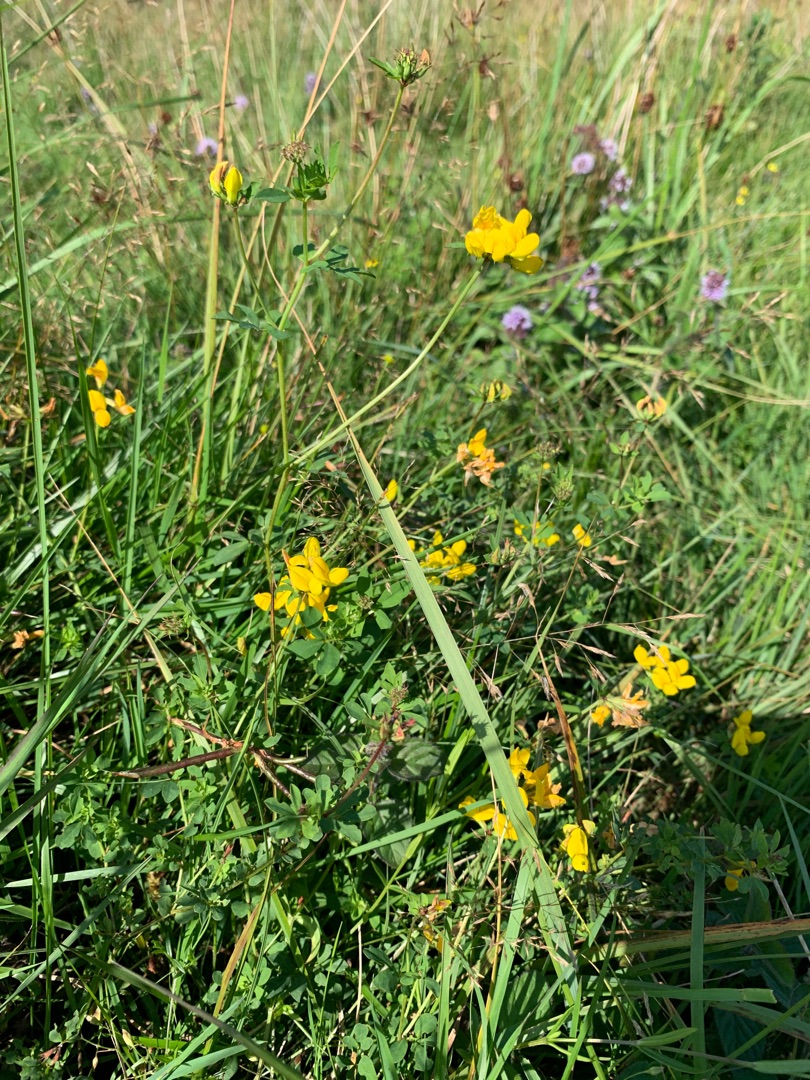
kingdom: Plantae
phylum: Tracheophyta
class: Magnoliopsida
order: Fabales
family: Fabaceae
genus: Lotus
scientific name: Lotus corniculatus
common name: Almindelig kællingetand
